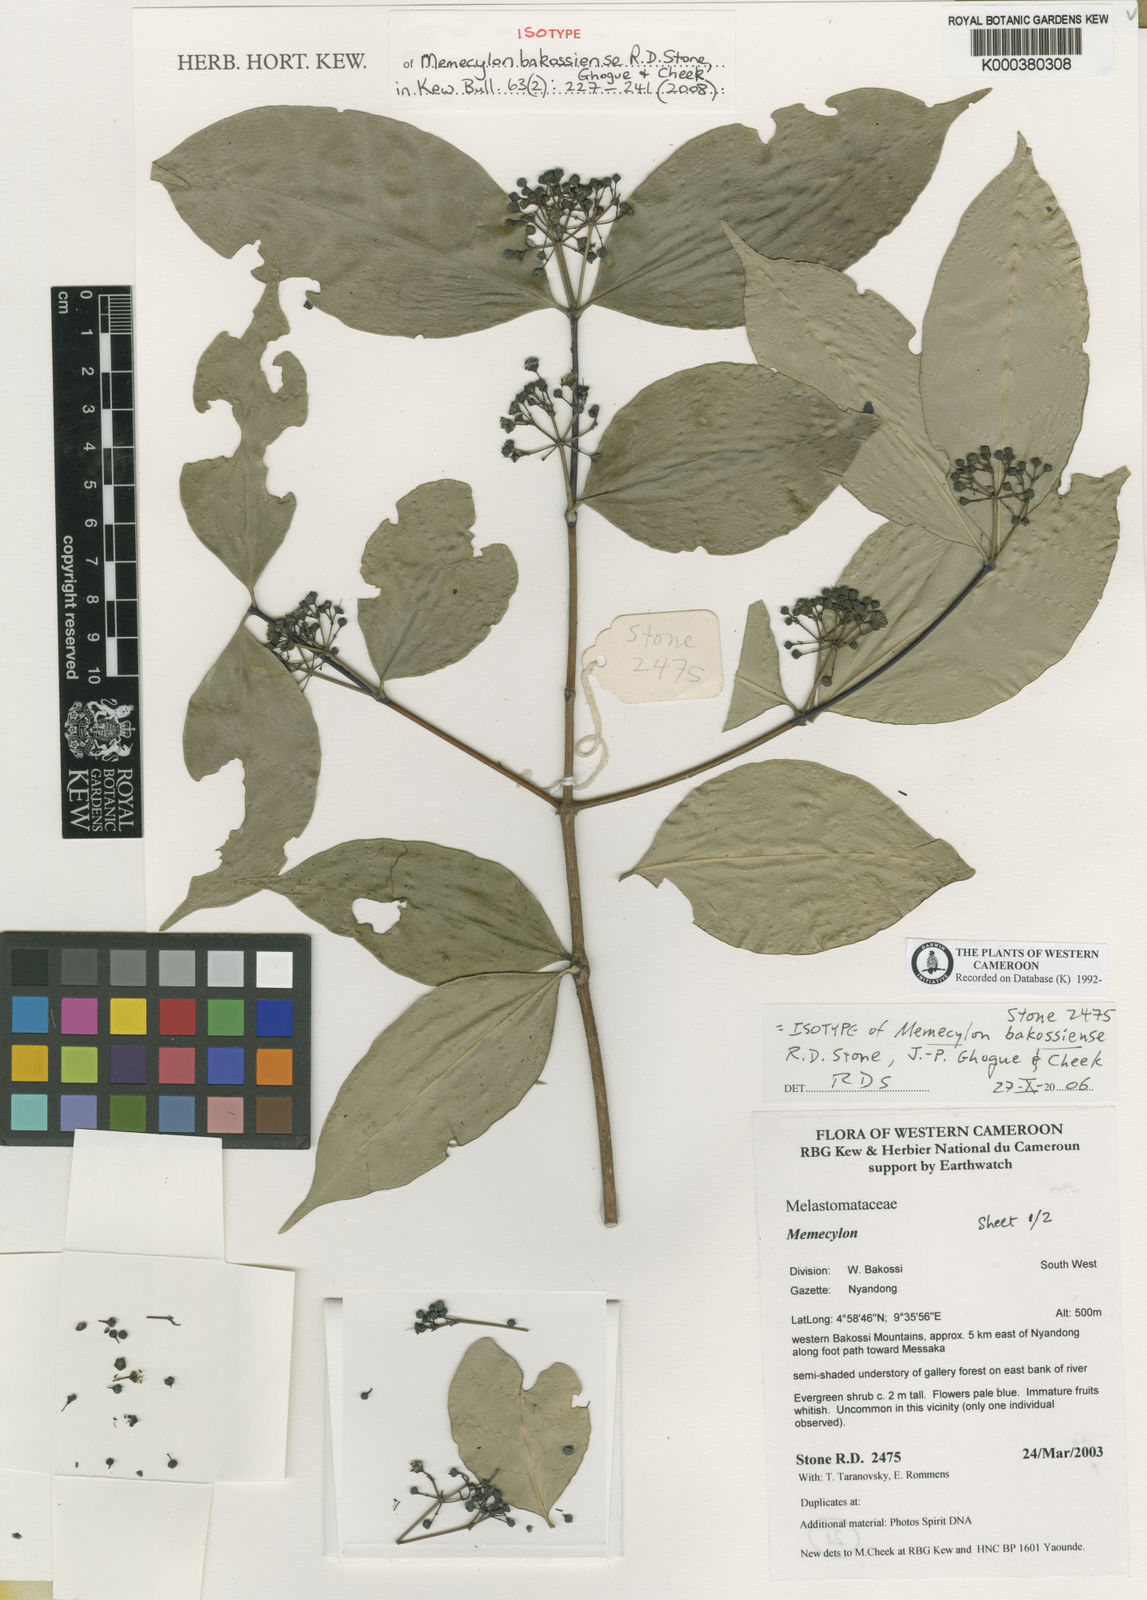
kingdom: Plantae
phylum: Tracheophyta
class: Magnoliopsida
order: Myrtales
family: Melastomataceae
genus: Memecylon
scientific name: Memecylon bakossiense
